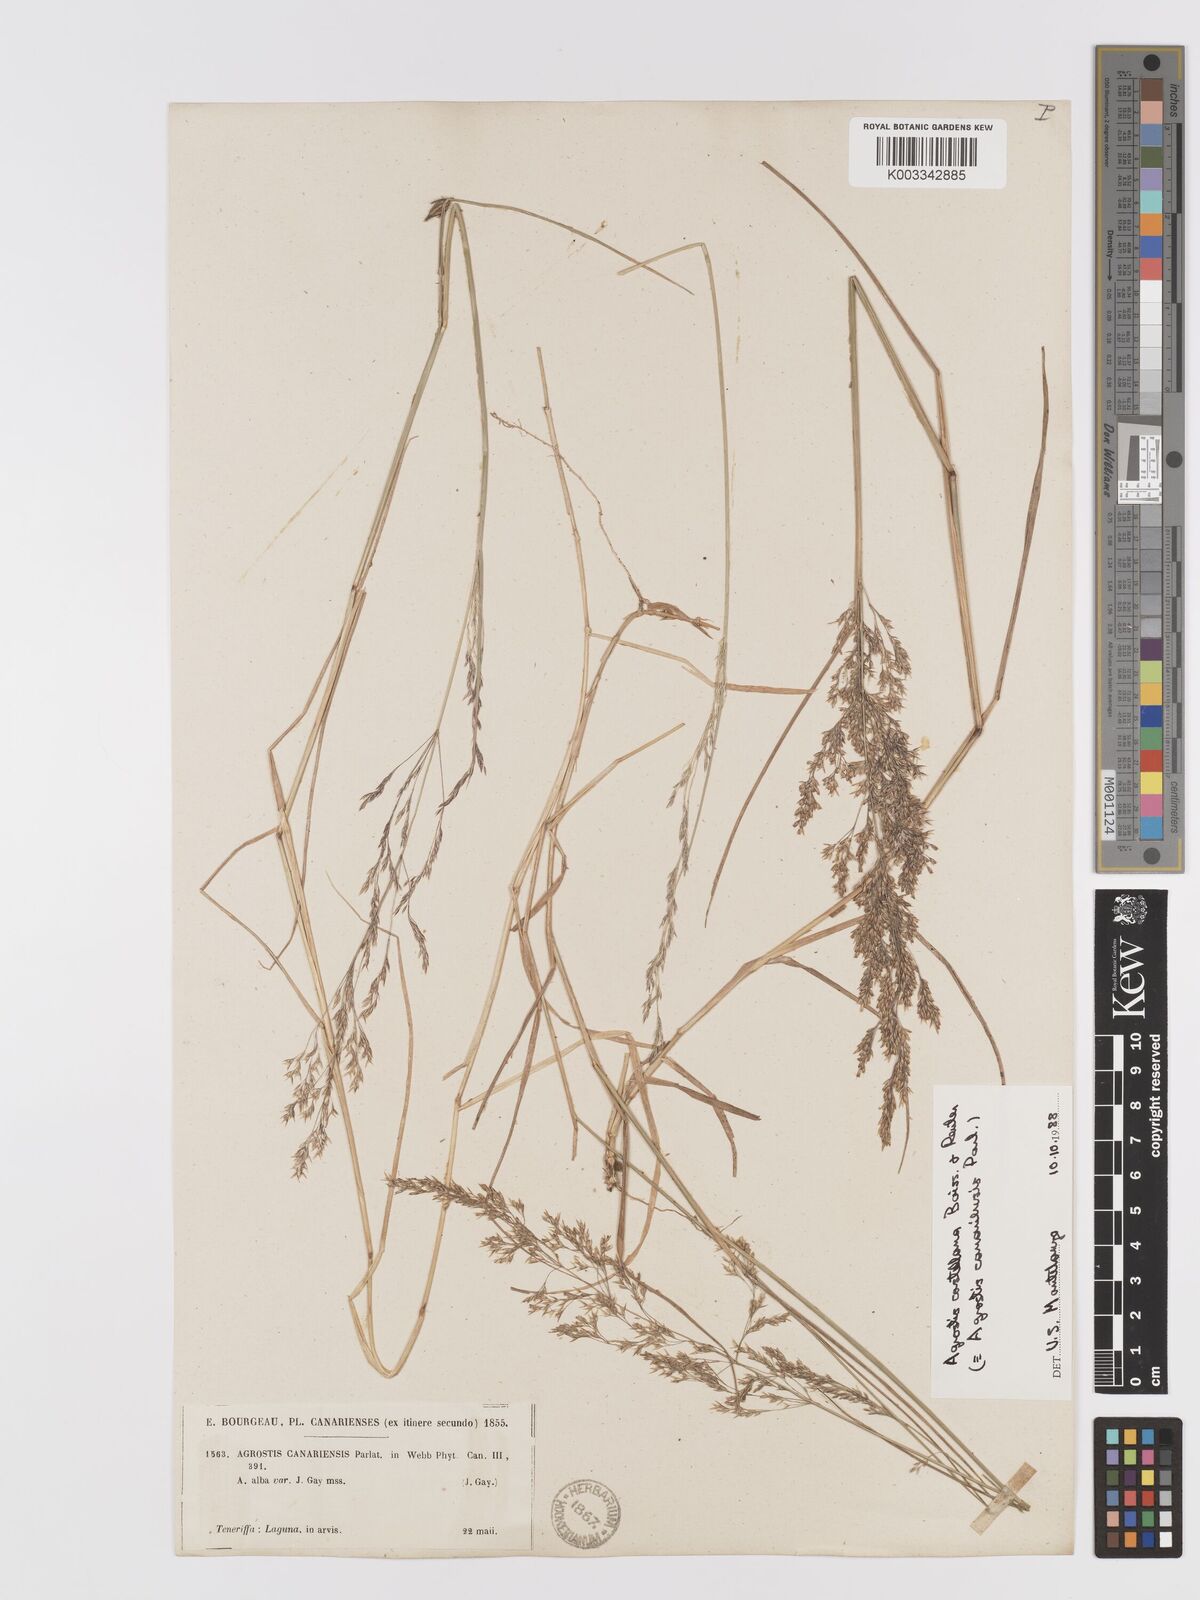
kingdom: Plantae
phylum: Tracheophyta
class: Liliopsida
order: Poales
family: Poaceae
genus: Agrostis
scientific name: Agrostis castellana
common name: Highland bent
